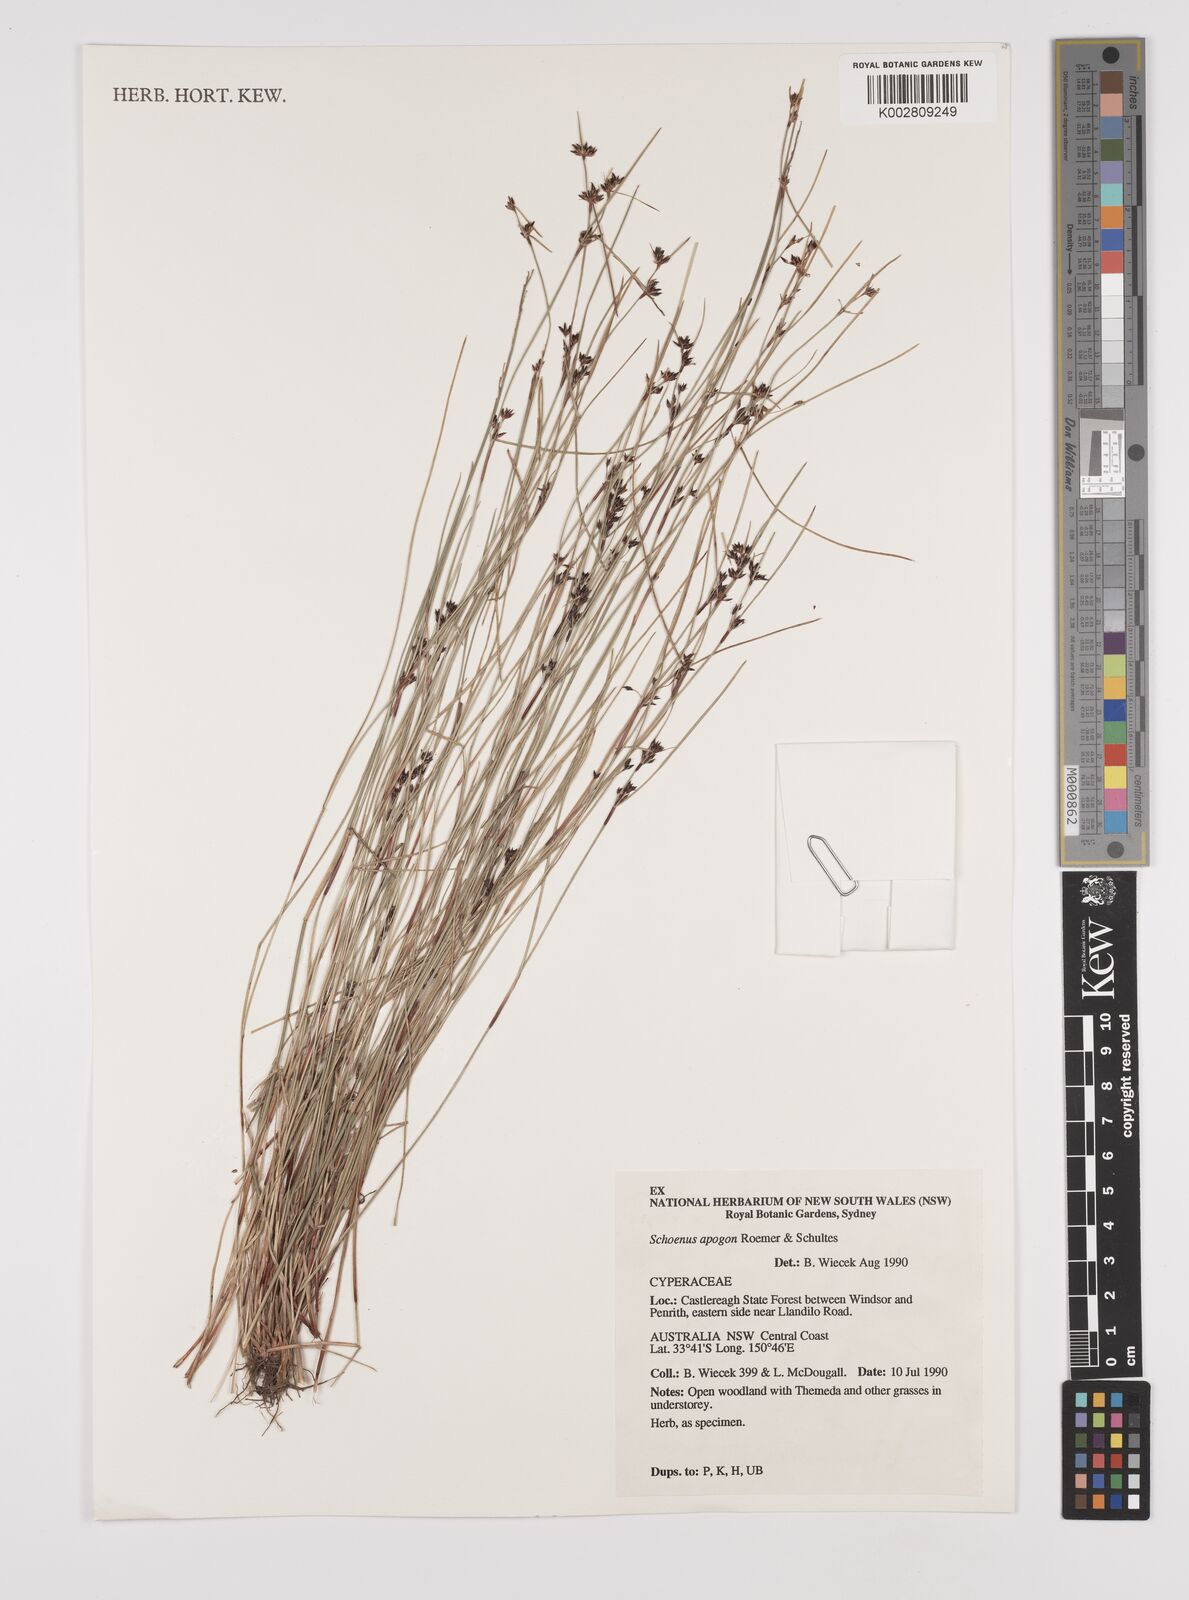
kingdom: Plantae
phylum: Tracheophyta
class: Liliopsida
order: Poales
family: Cyperaceae
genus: Schoenus
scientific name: Schoenus apogon
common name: Smooth bogrush
